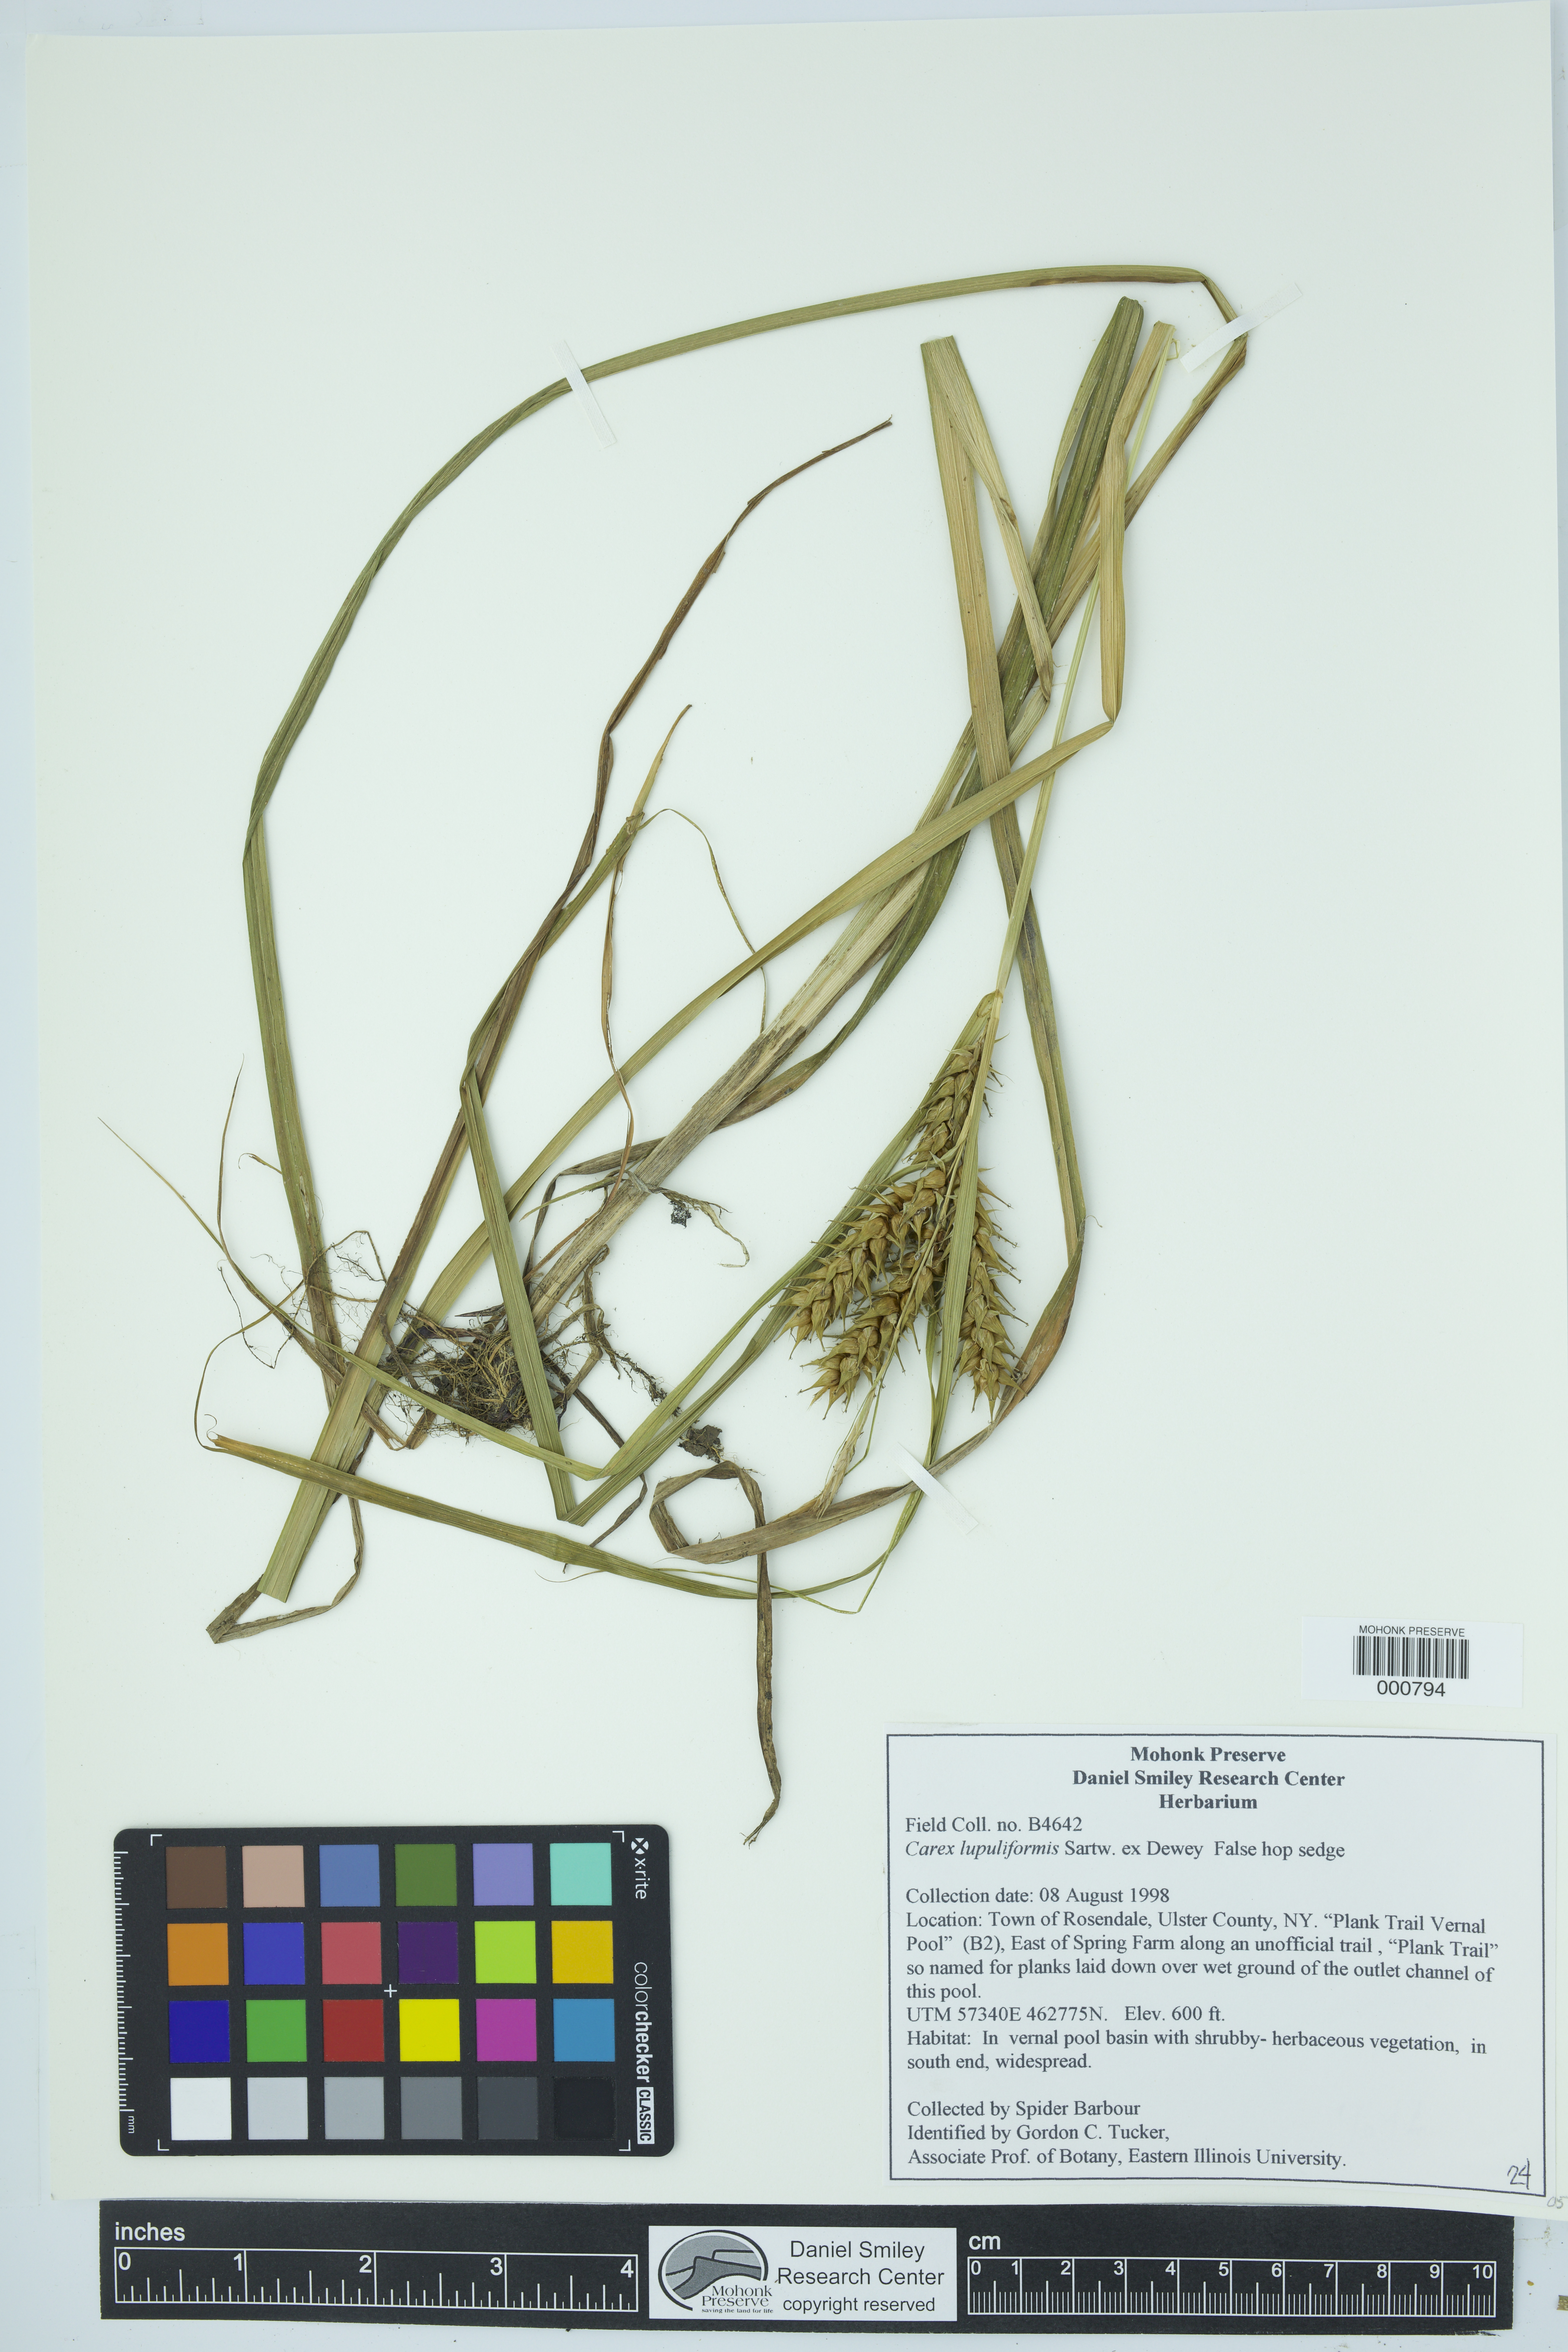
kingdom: Plantae
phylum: Tracheophyta
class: Liliopsida
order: Poales
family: Cyperaceae
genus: Carex
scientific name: Carex lupuliformis
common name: False hop sedge
